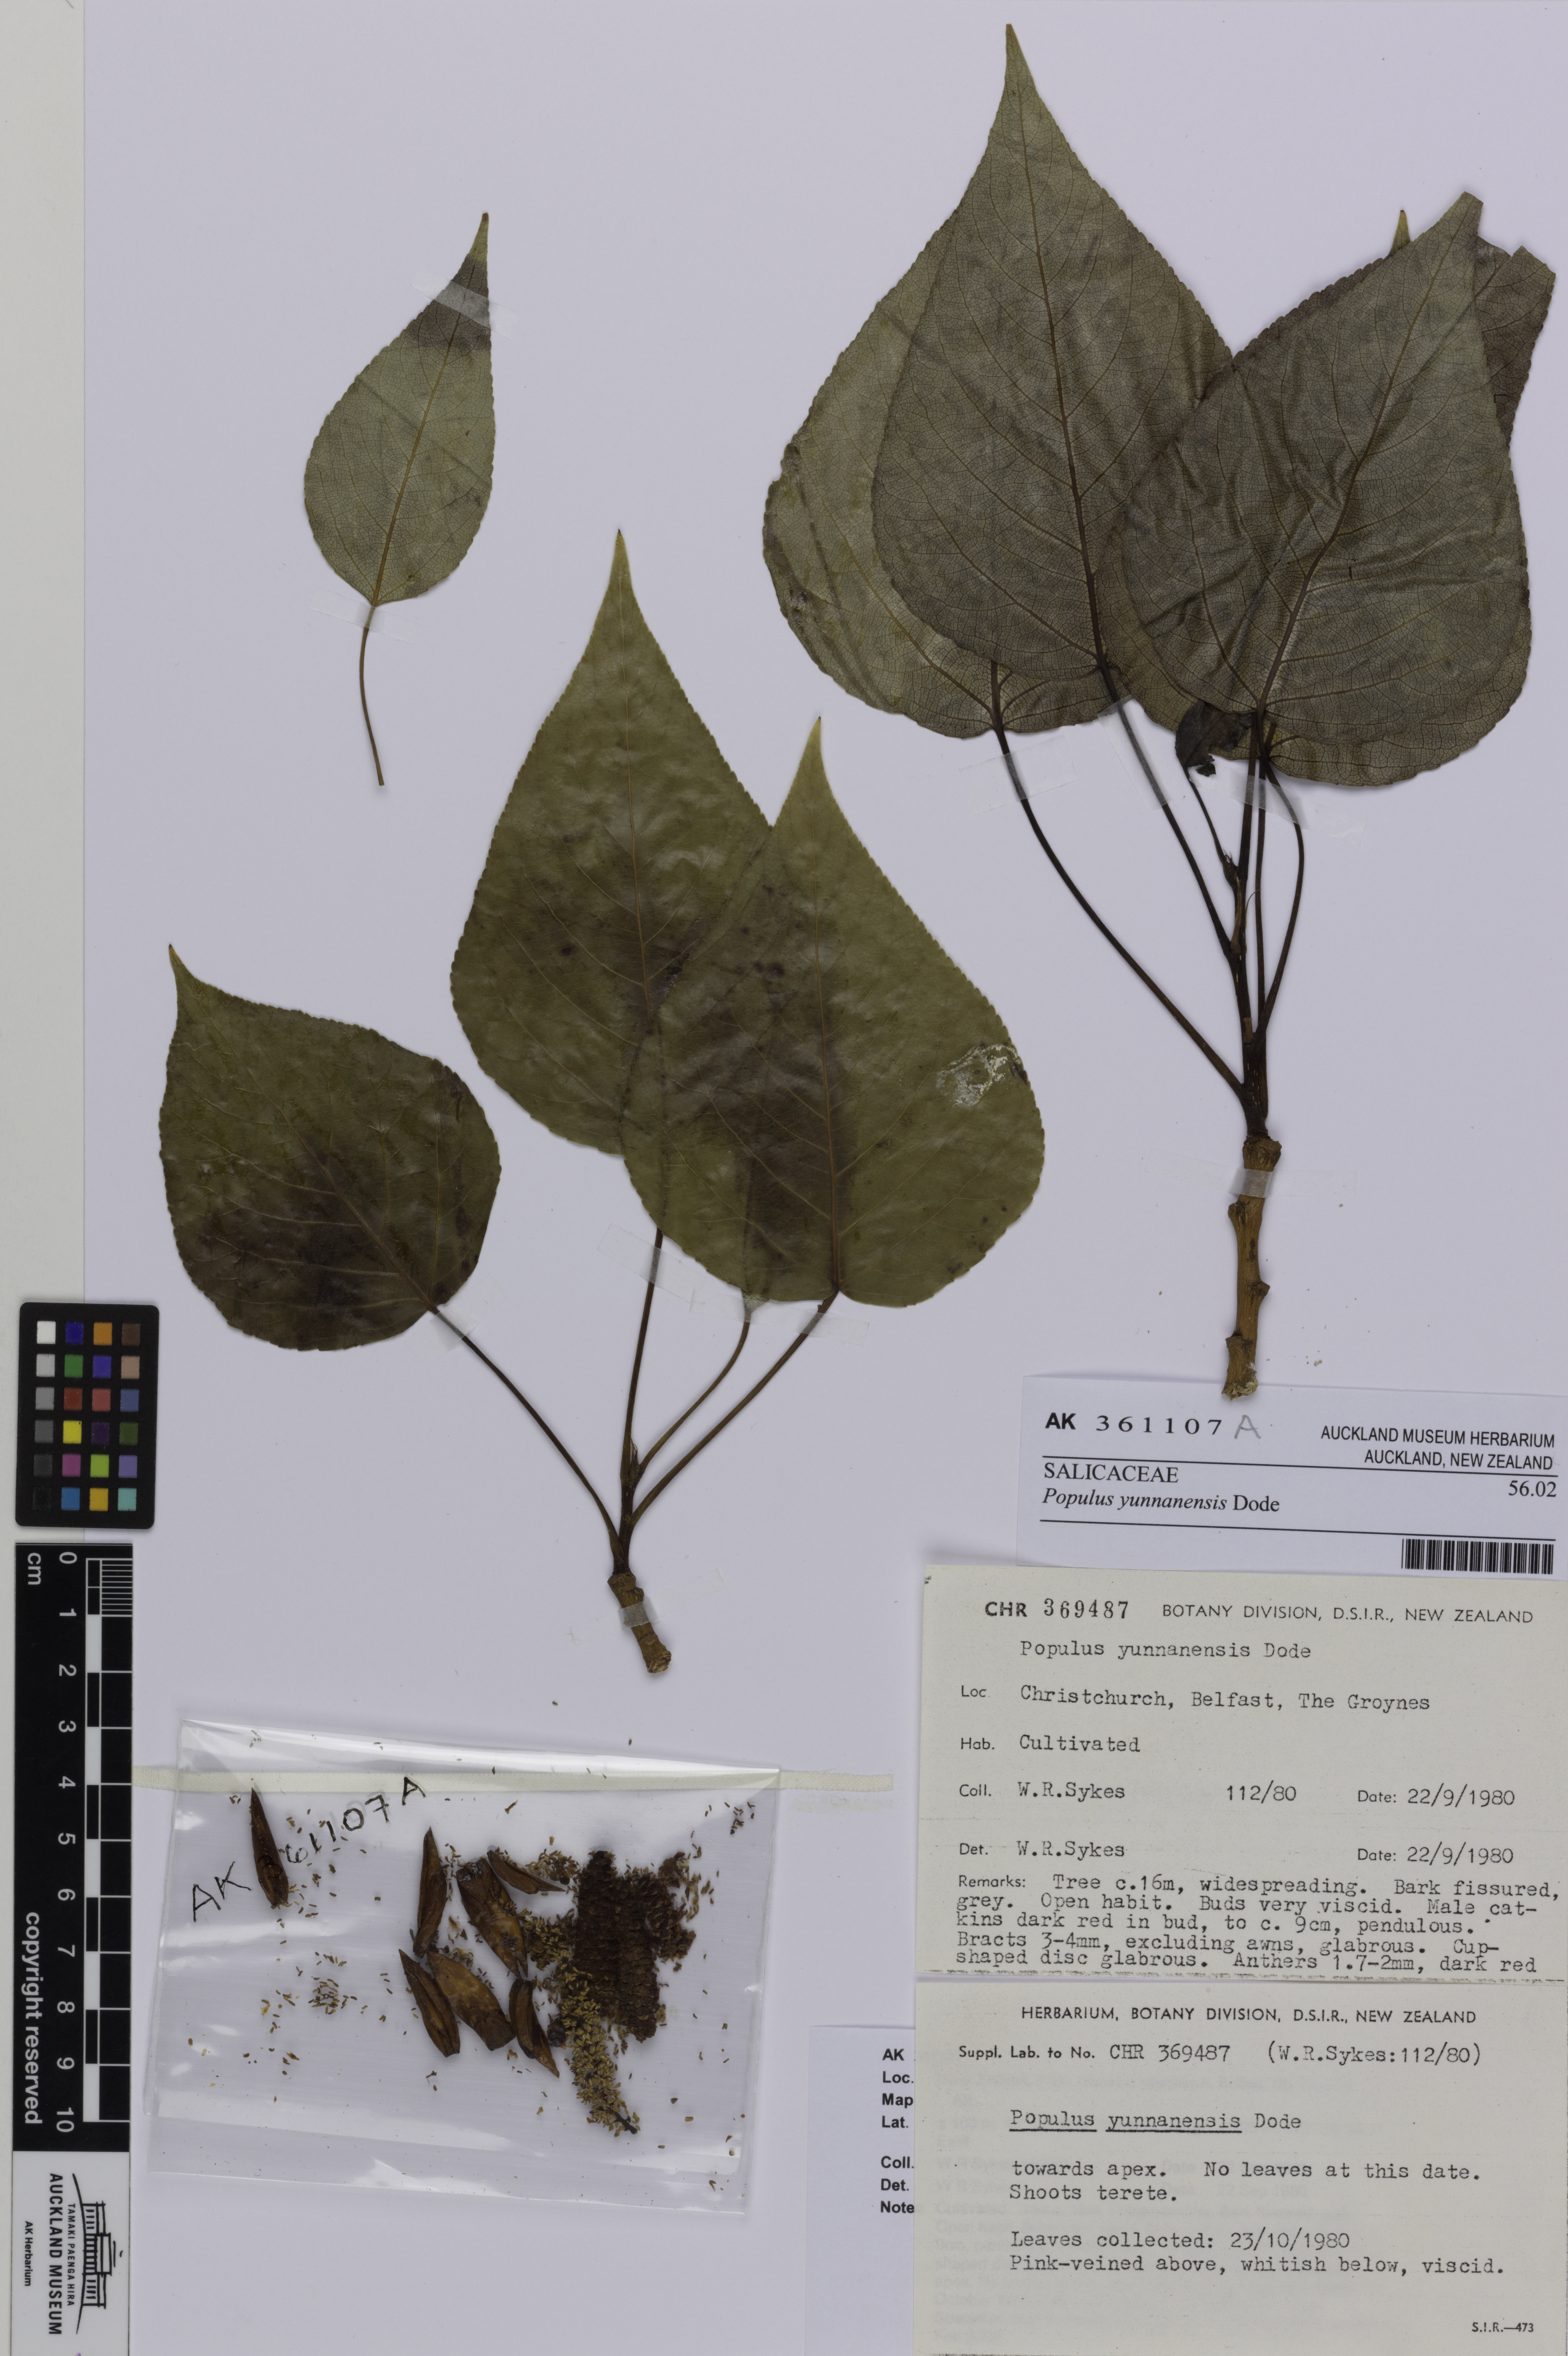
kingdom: Plantae
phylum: Tracheophyta
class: Magnoliopsida
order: Malpighiales
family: Salicaceae
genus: Populus
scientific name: Populus yunnanensis
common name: Yunnan poplar
